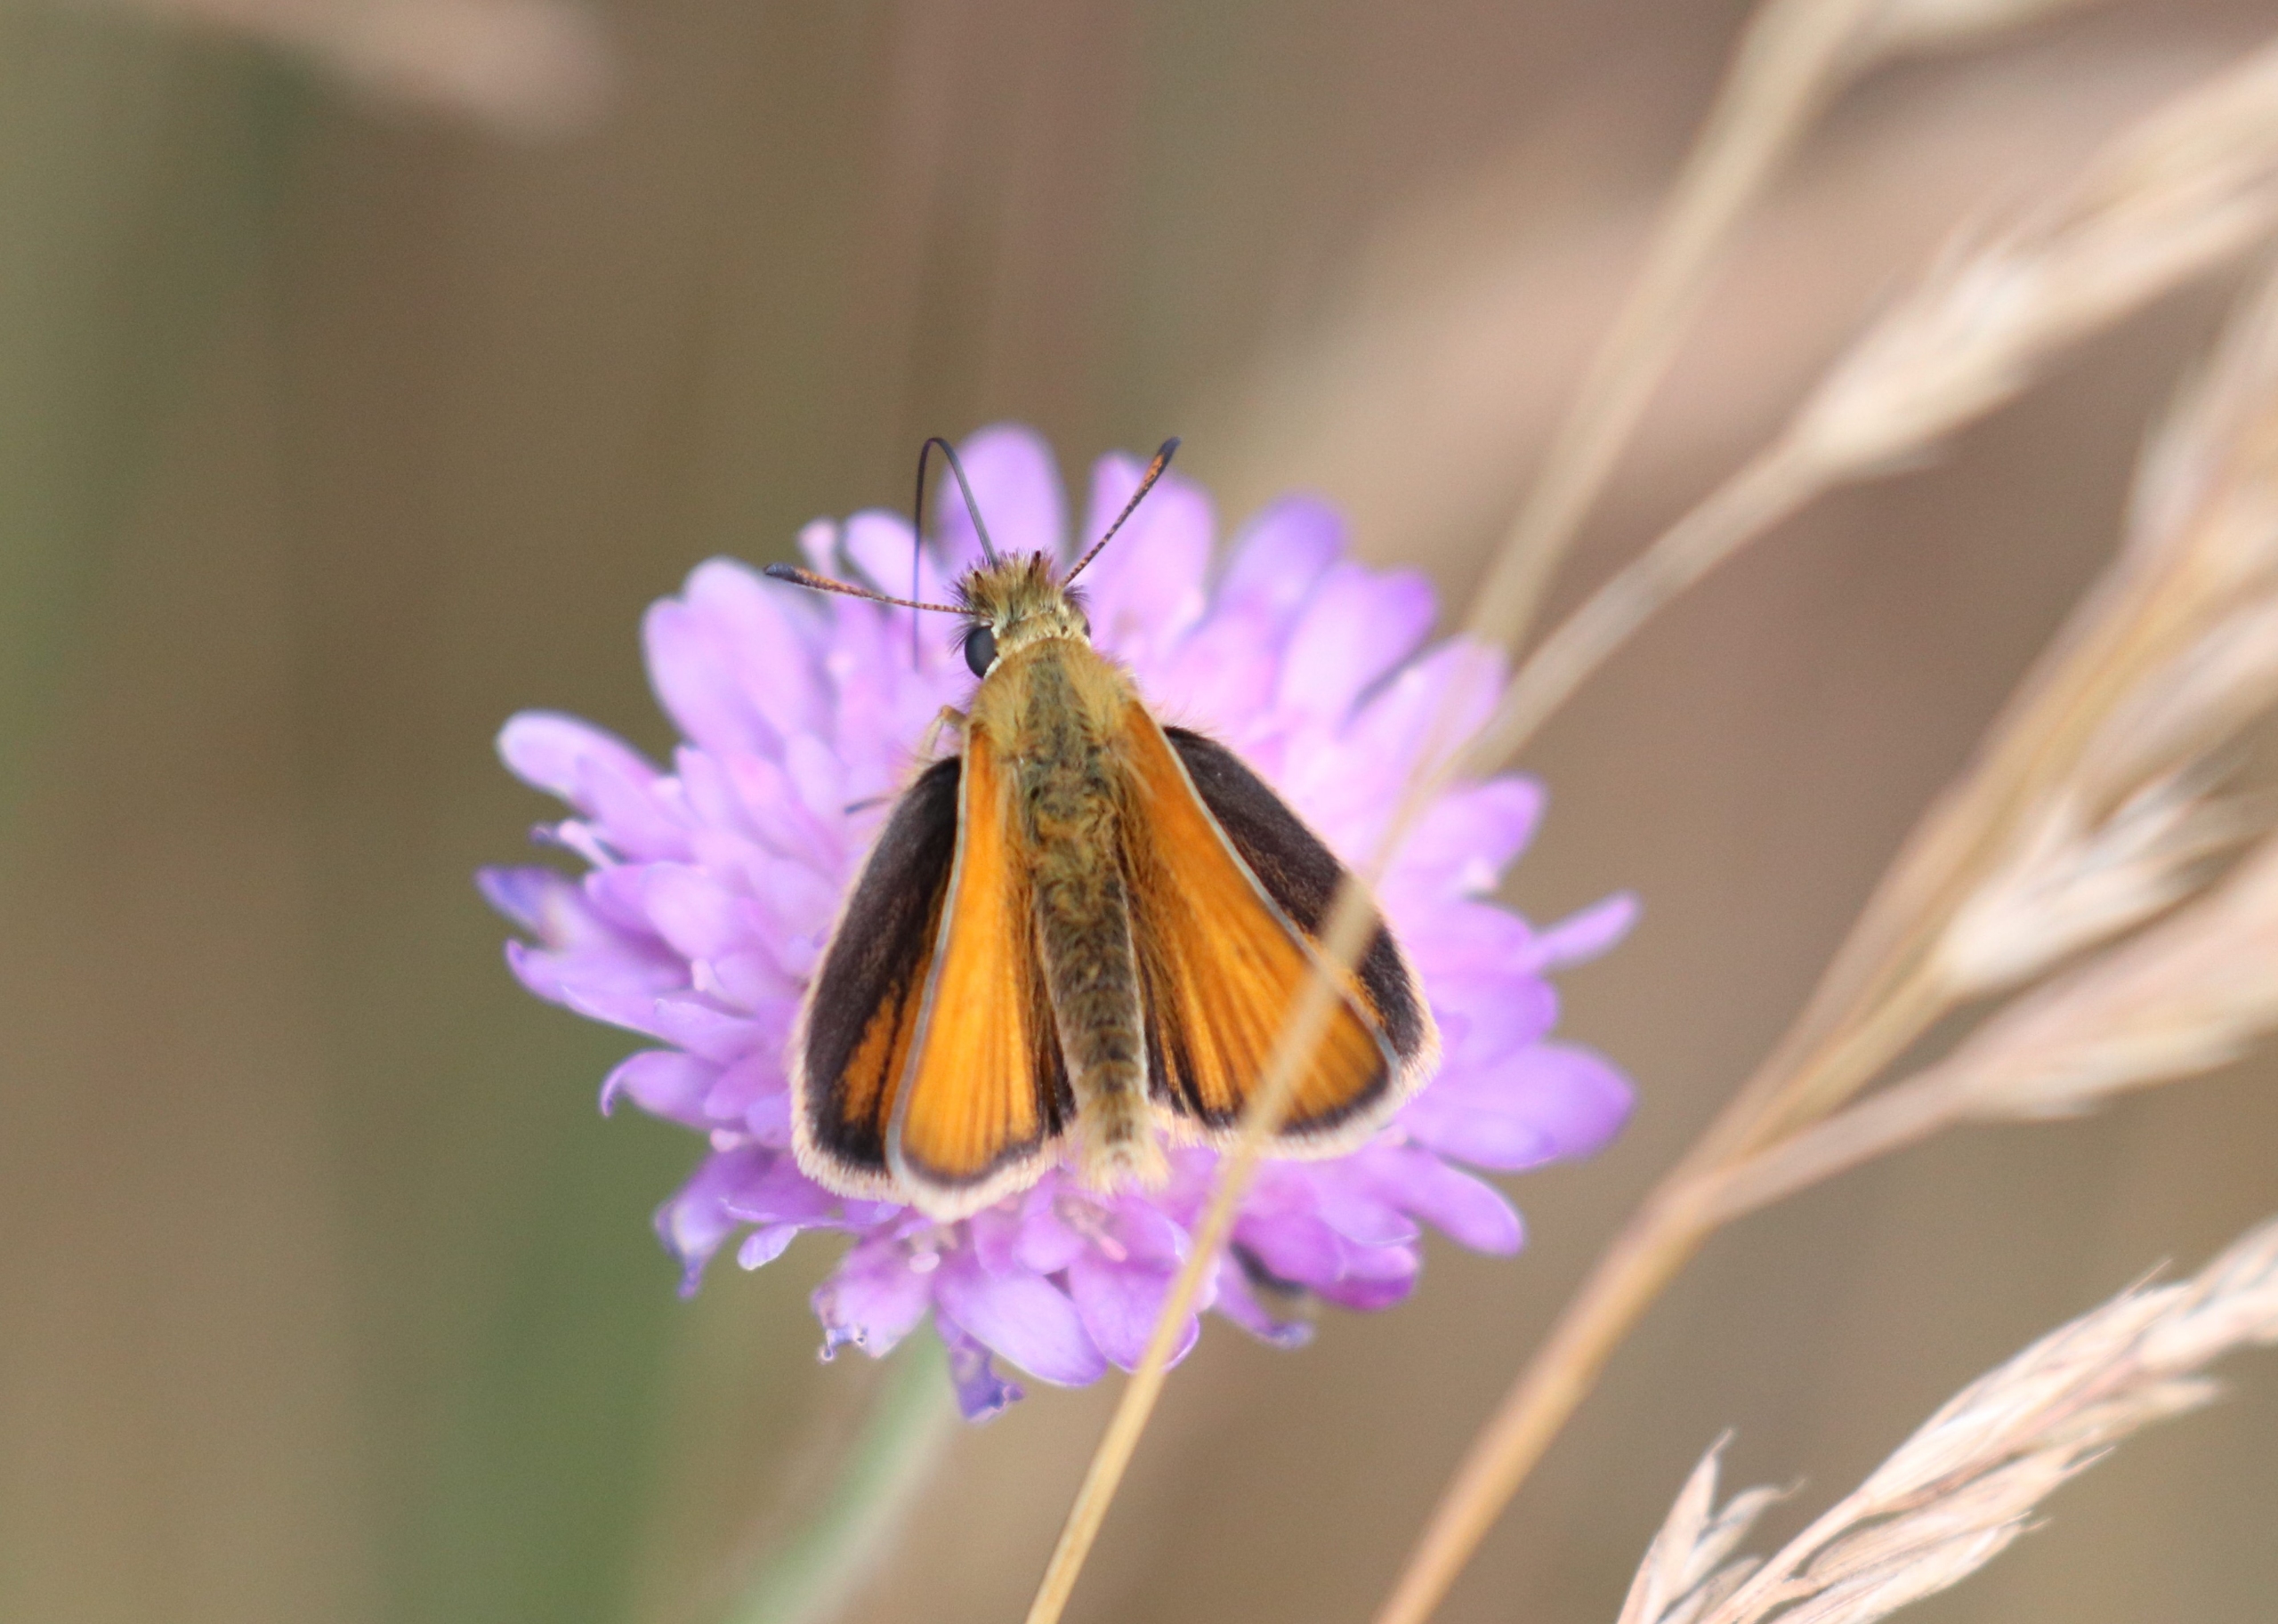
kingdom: Animalia
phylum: Arthropoda
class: Insecta
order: Lepidoptera
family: Hesperiidae
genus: Thymelicus
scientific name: Thymelicus lineola
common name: Stregbredpande
